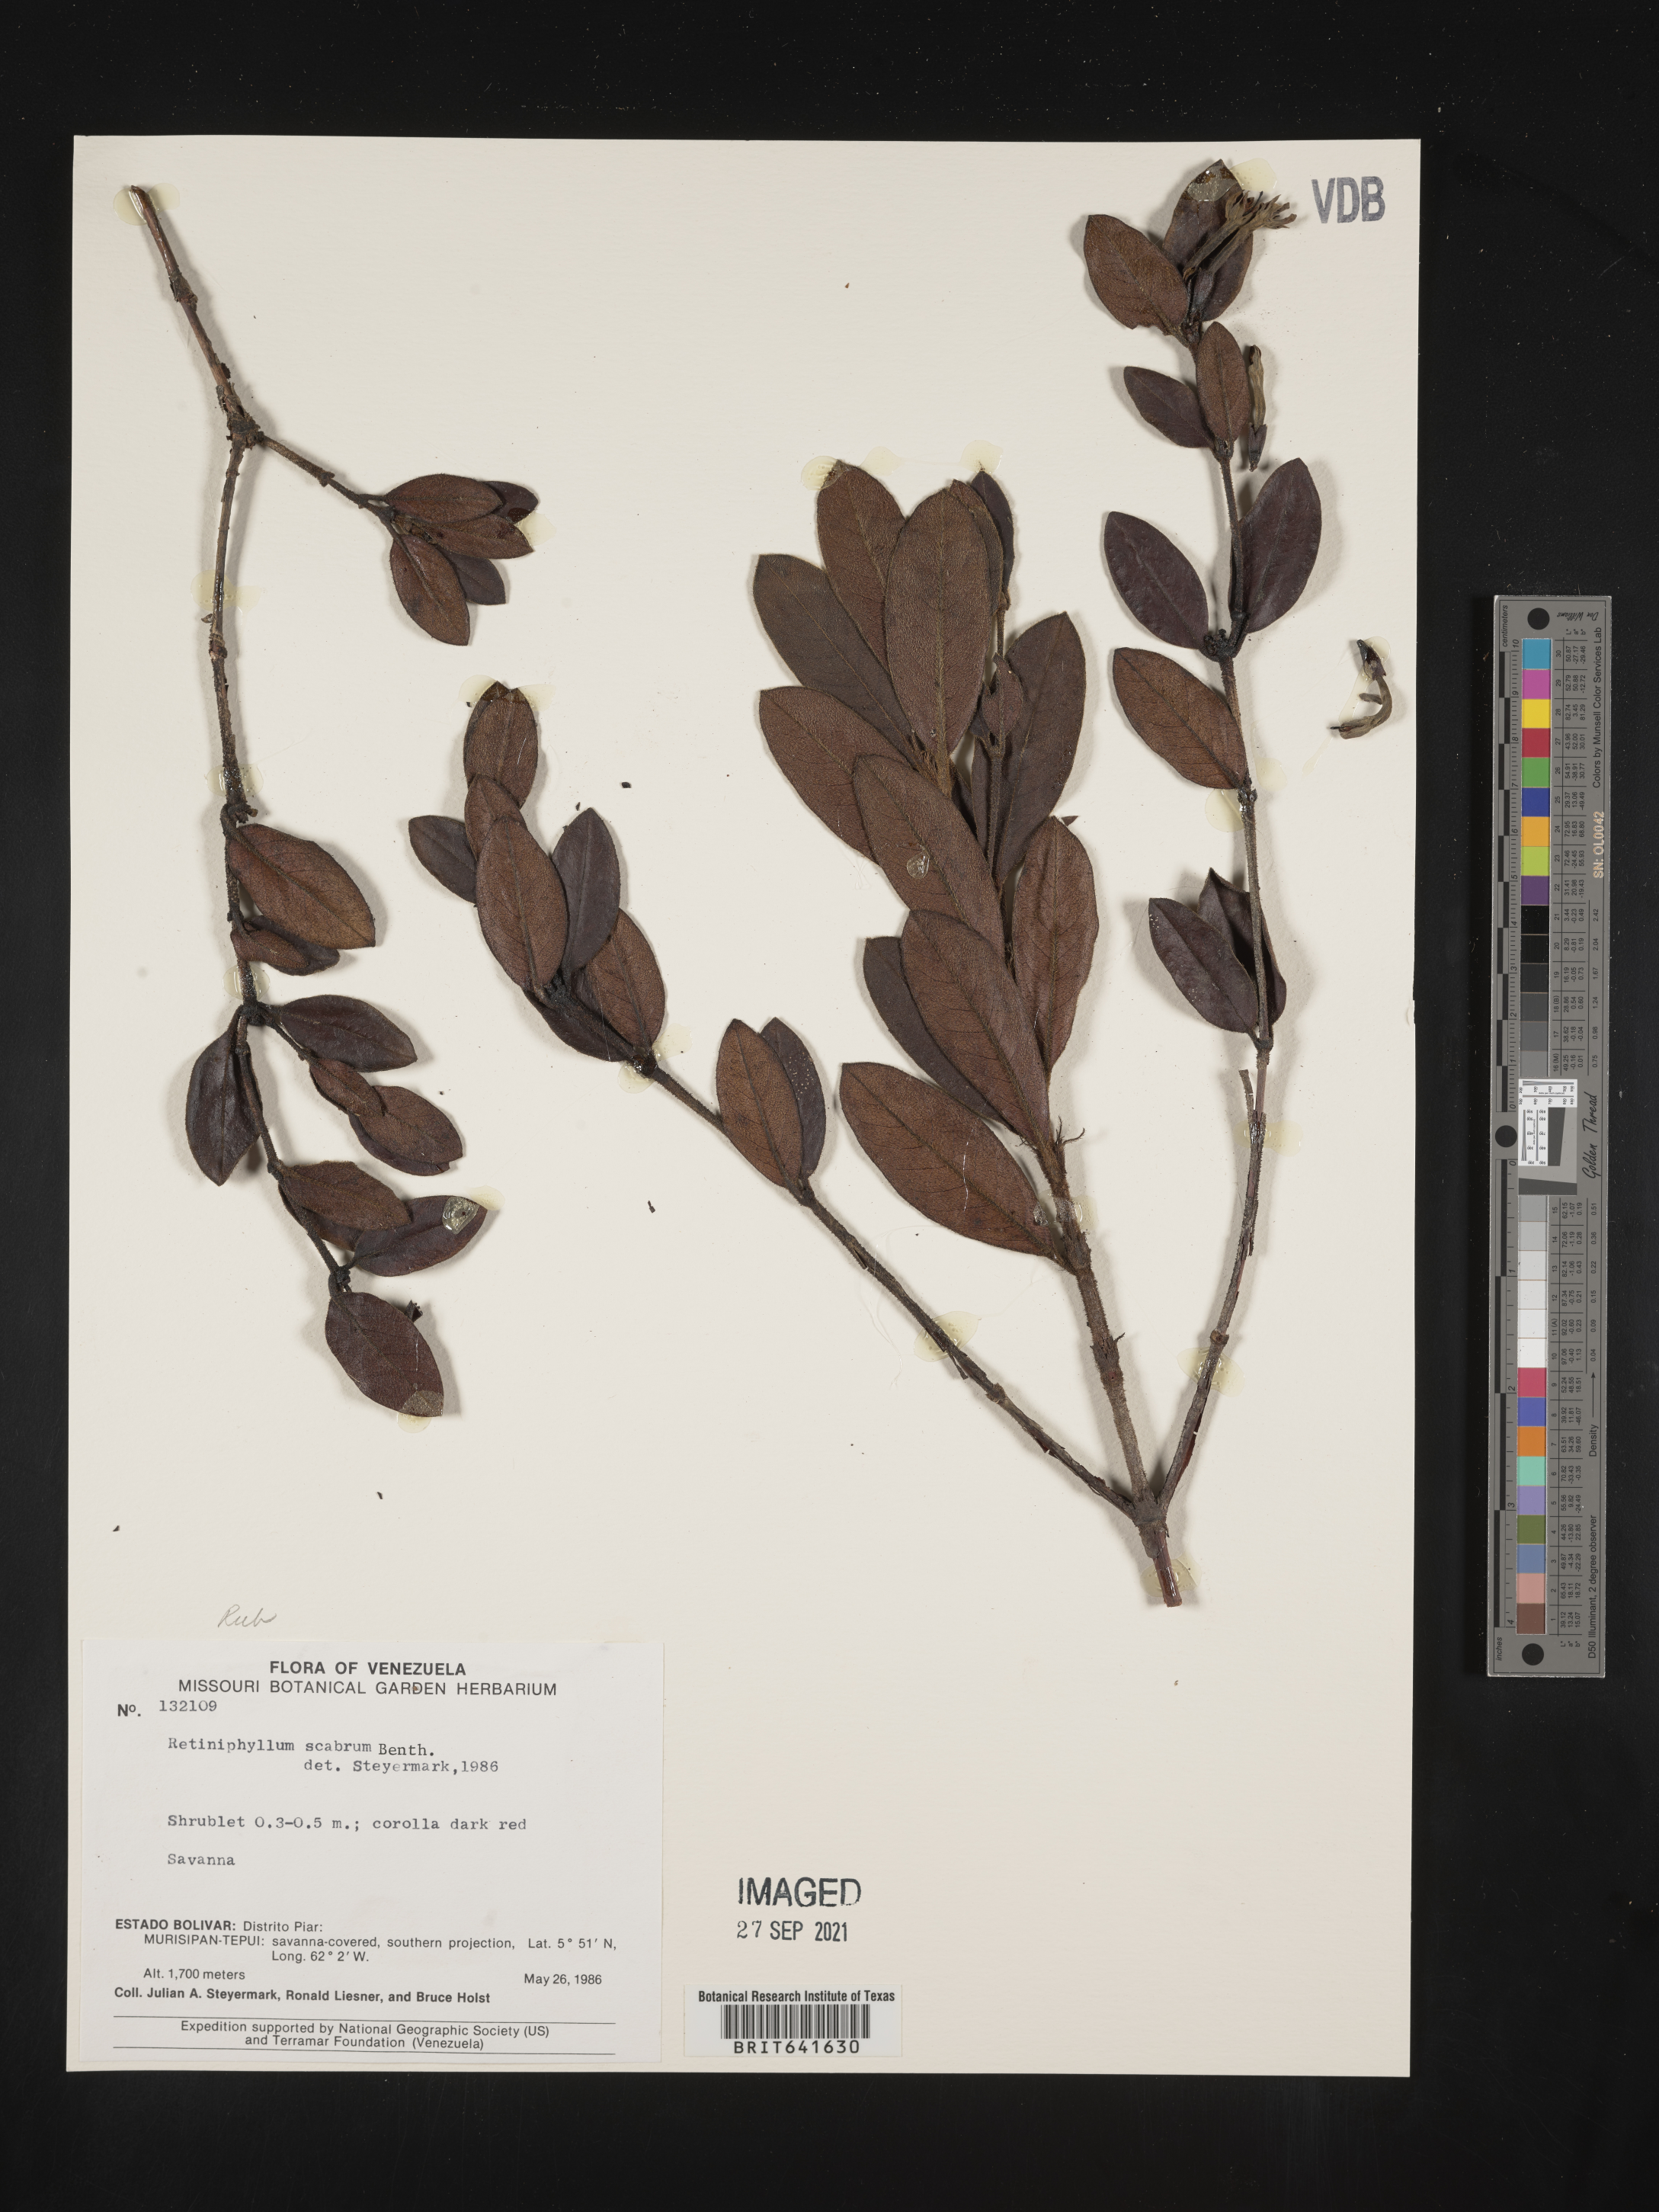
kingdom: Plantae
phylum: Tracheophyta
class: Magnoliopsida
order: Gentianales
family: Rubiaceae
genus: Retiniphyllum
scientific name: Retiniphyllum
